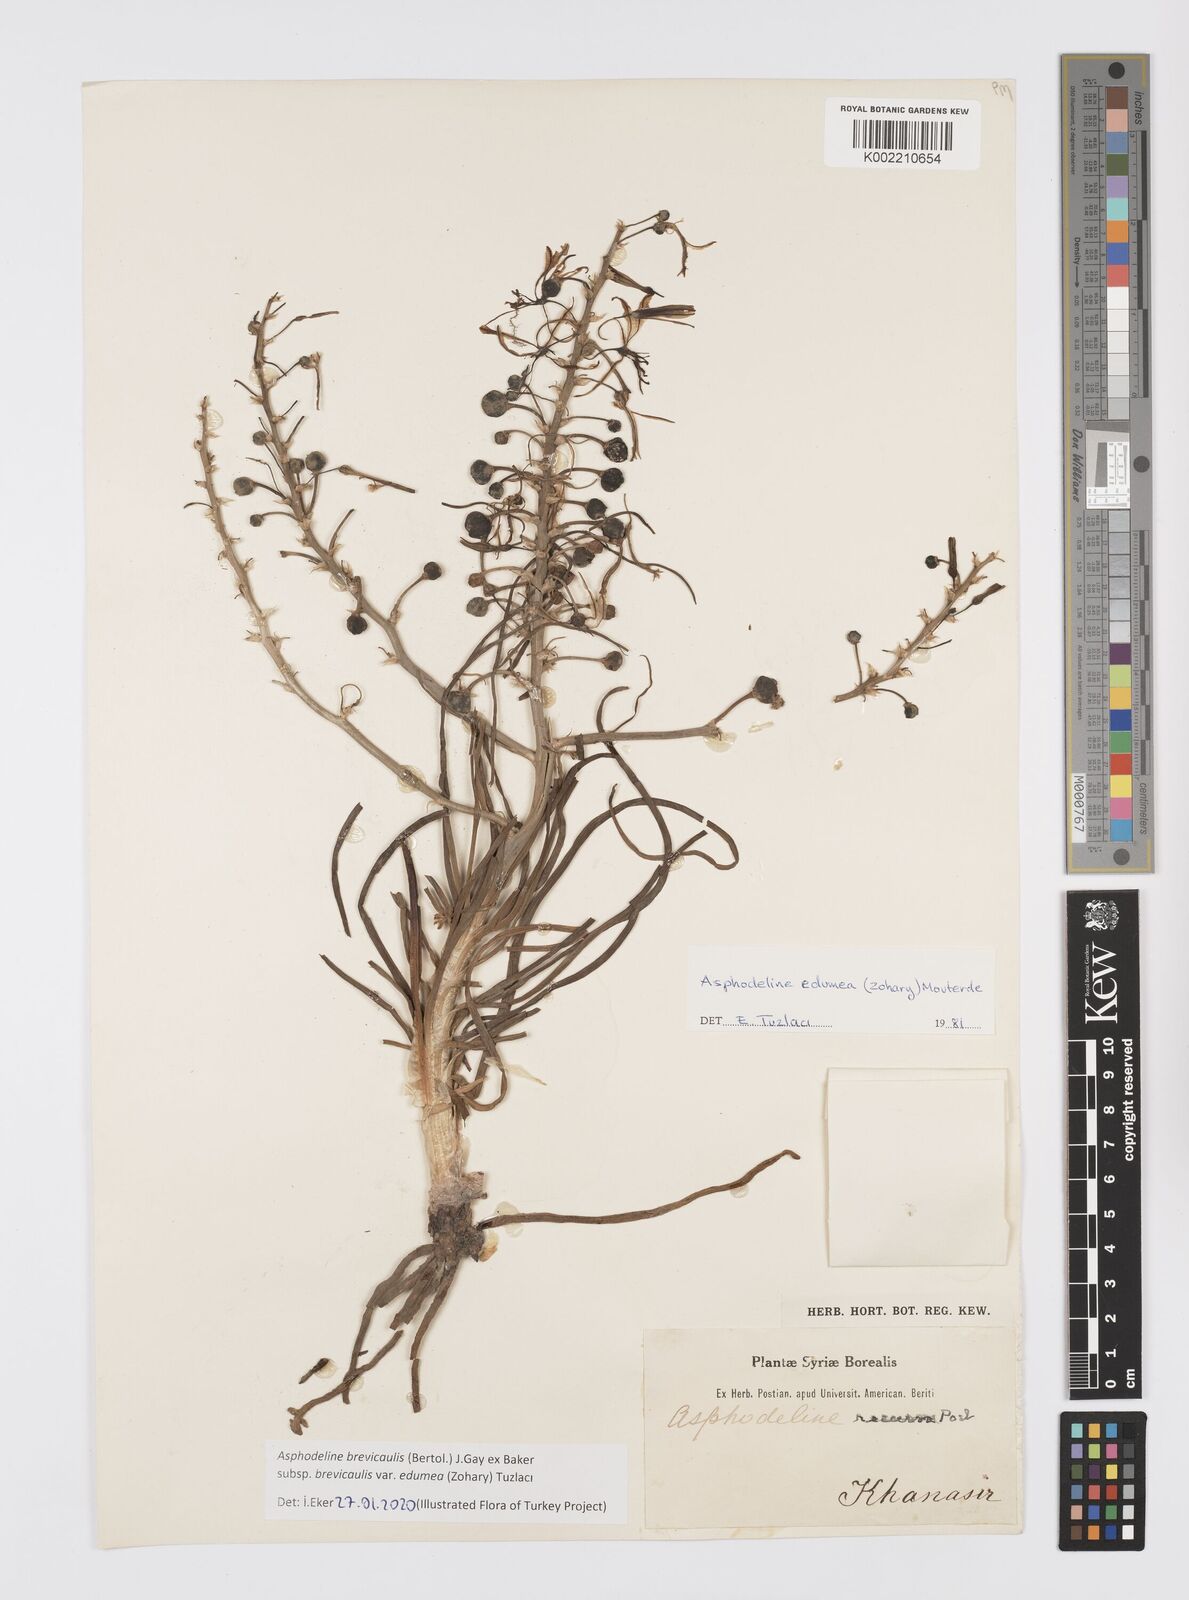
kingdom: Plantae
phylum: Tracheophyta
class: Liliopsida
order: Asparagales
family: Asphodelaceae
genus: Asphodeline
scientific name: Asphodeline brevicaulis
